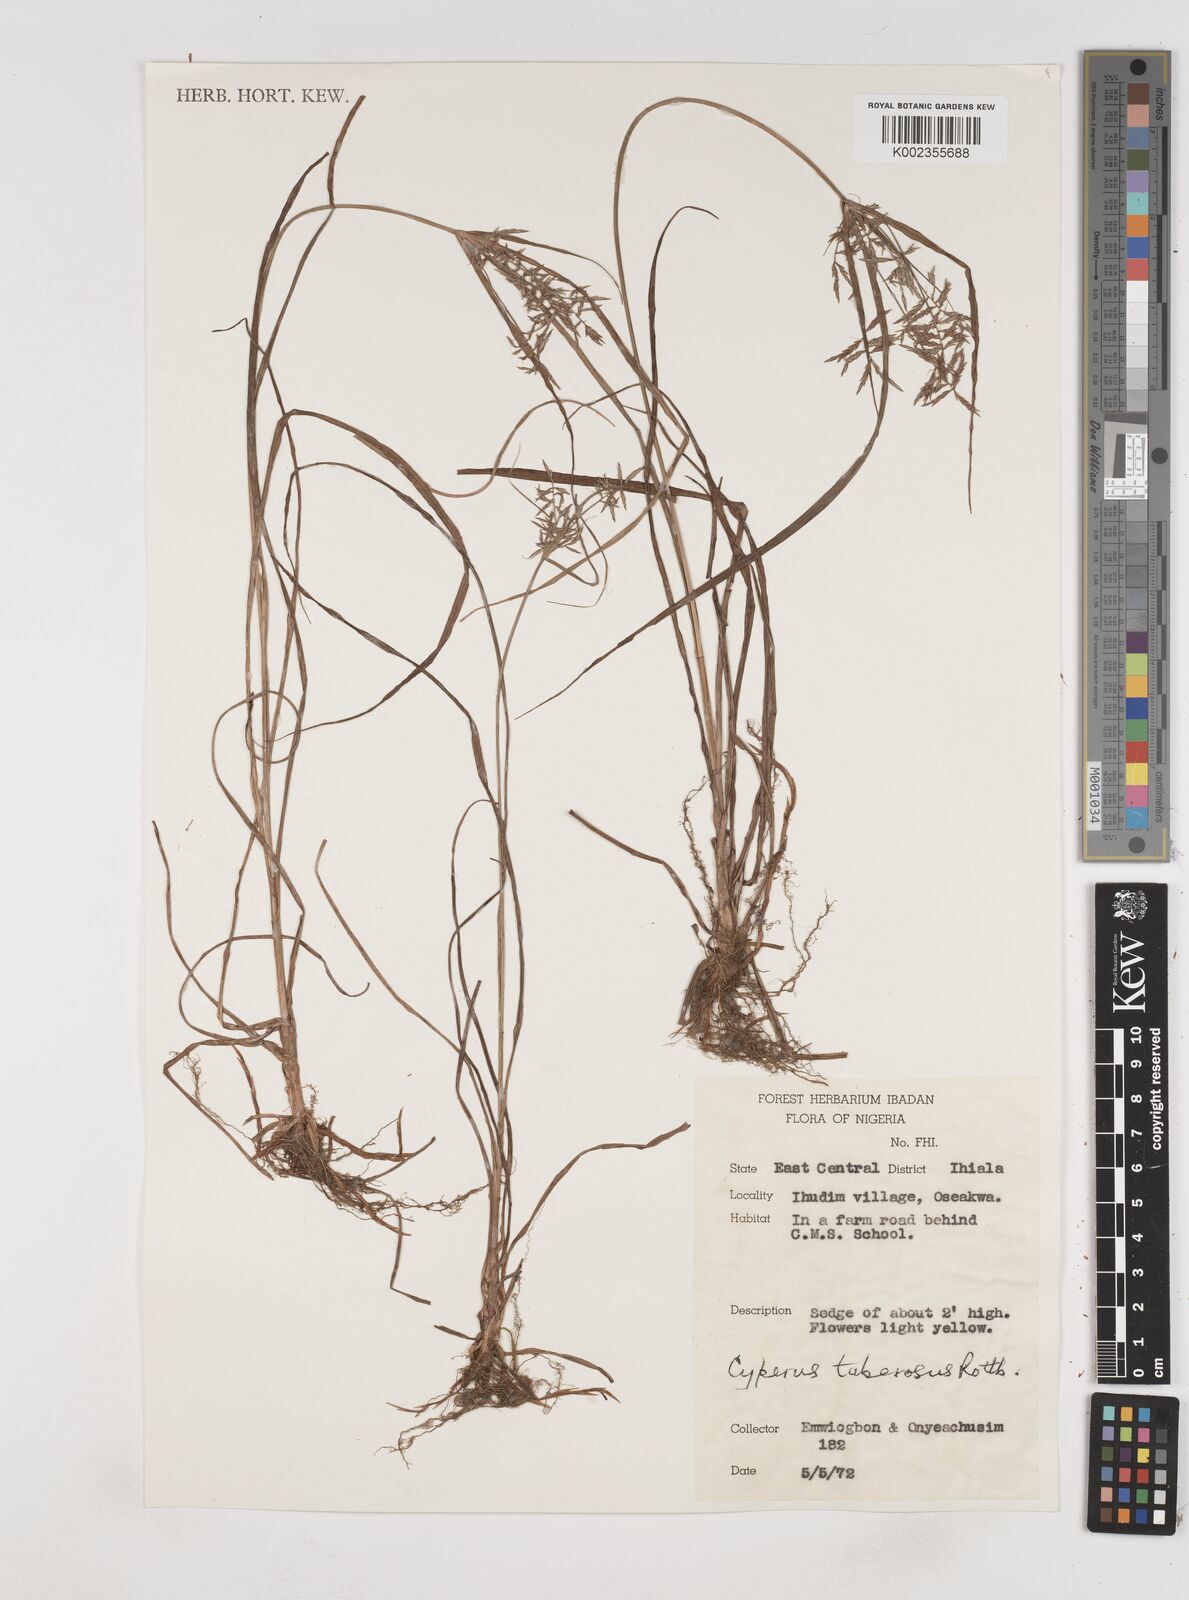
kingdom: Plantae
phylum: Tracheophyta
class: Liliopsida
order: Poales
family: Cyperaceae
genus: Cyperus
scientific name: Cyperus tuberosus
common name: Nut grass
